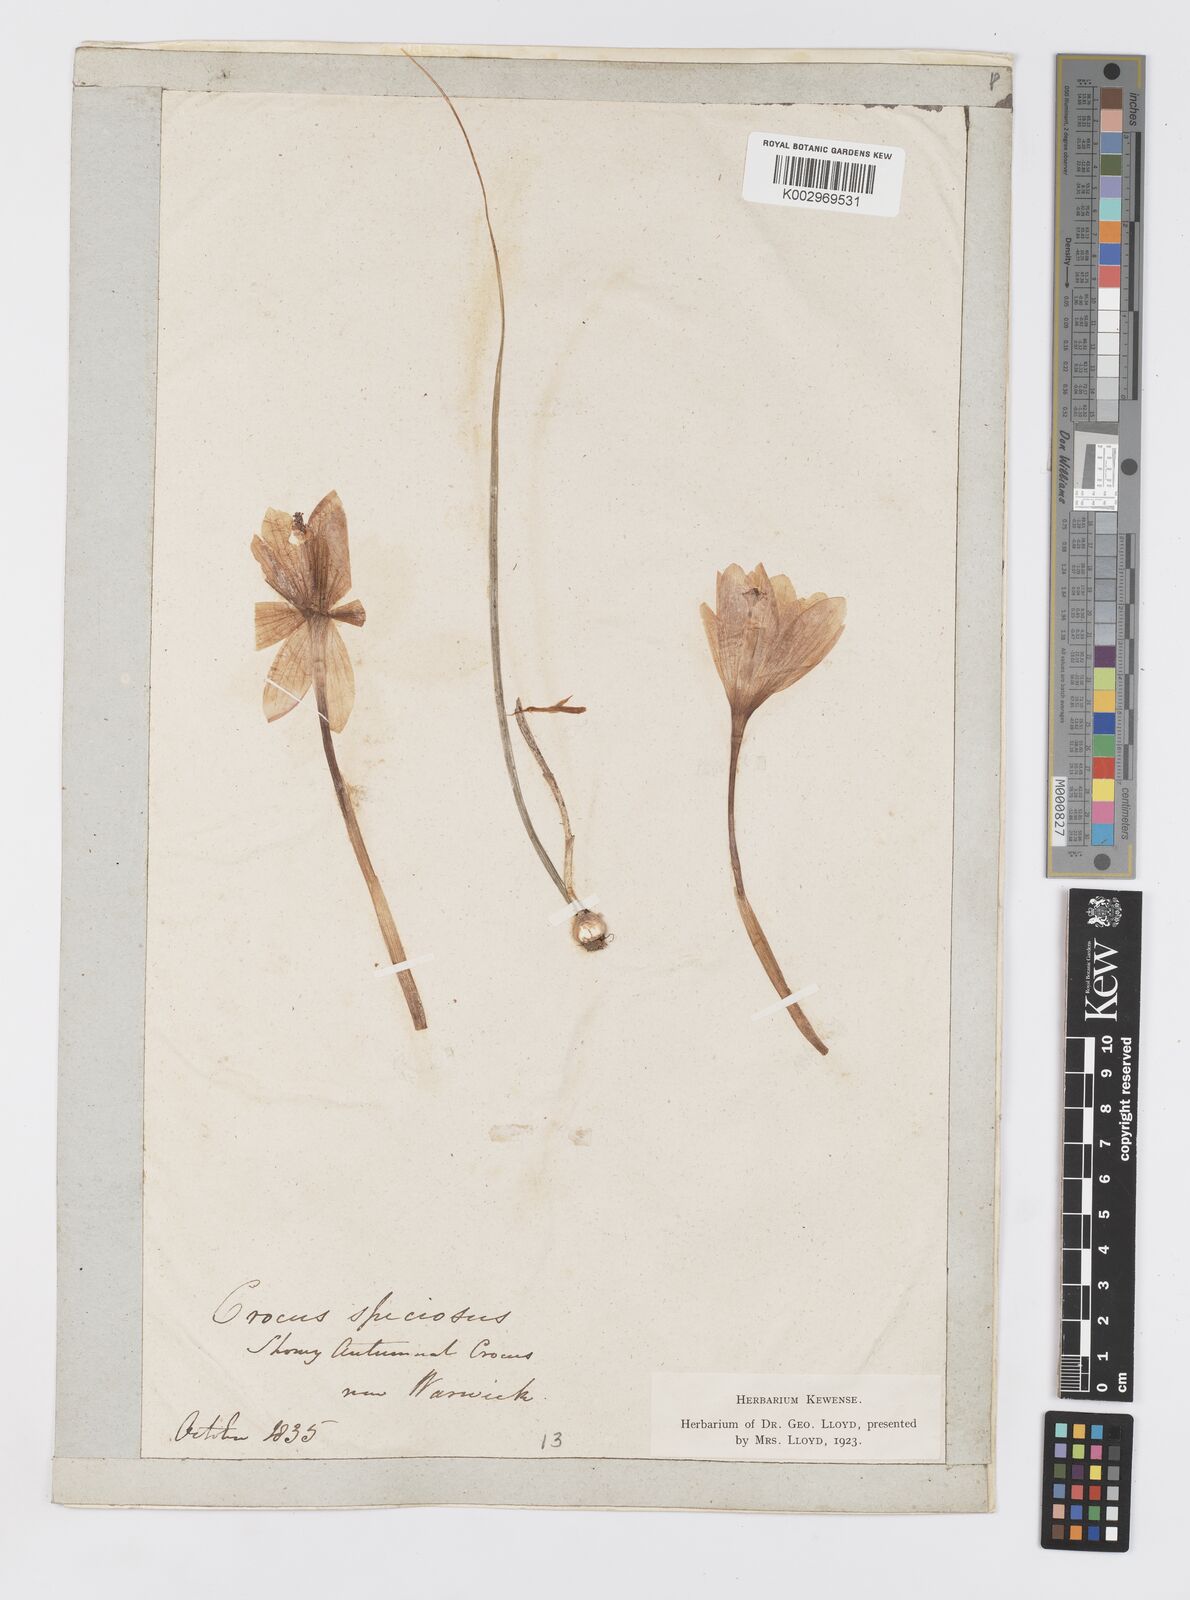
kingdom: Plantae
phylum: Tracheophyta
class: Liliopsida
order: Asparagales
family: Iridaceae
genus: Crocus
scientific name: Crocus speciosus
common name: Bieberstein's crocus
